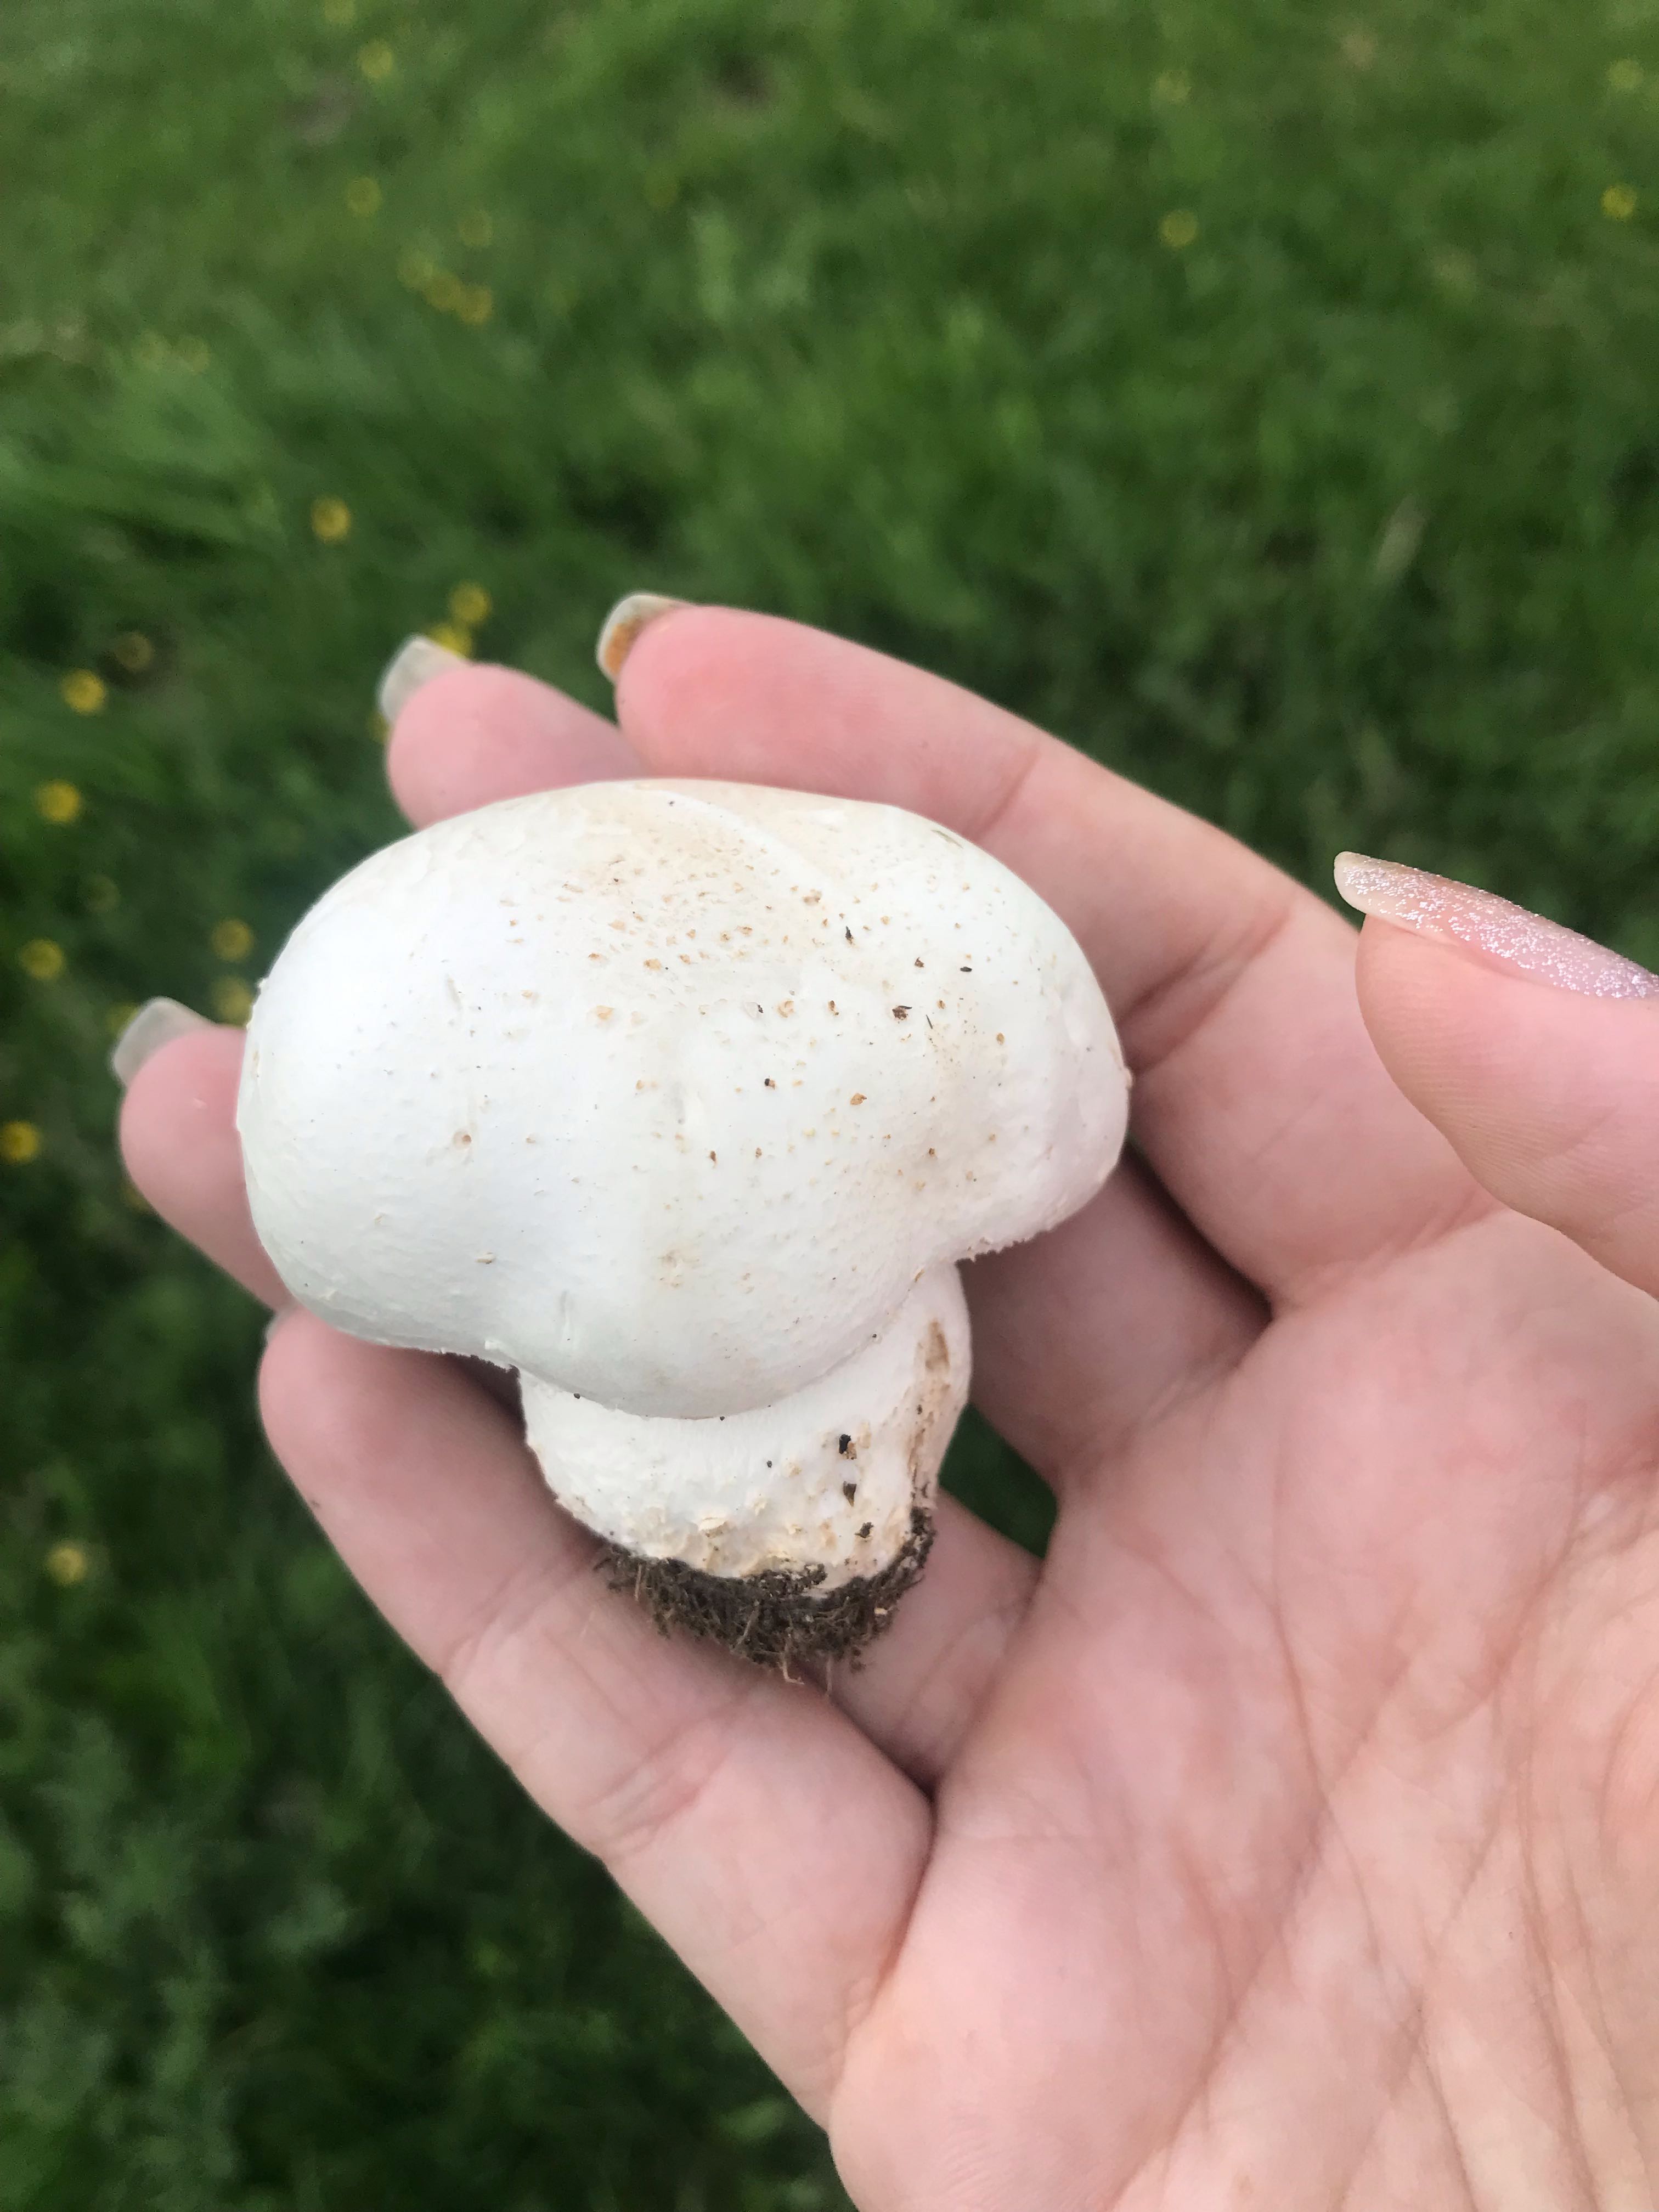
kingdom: Fungi
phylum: Basidiomycota
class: Agaricomycetes
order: Agaricales
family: Agaricaceae
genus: Agaricus
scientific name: Agaricus
